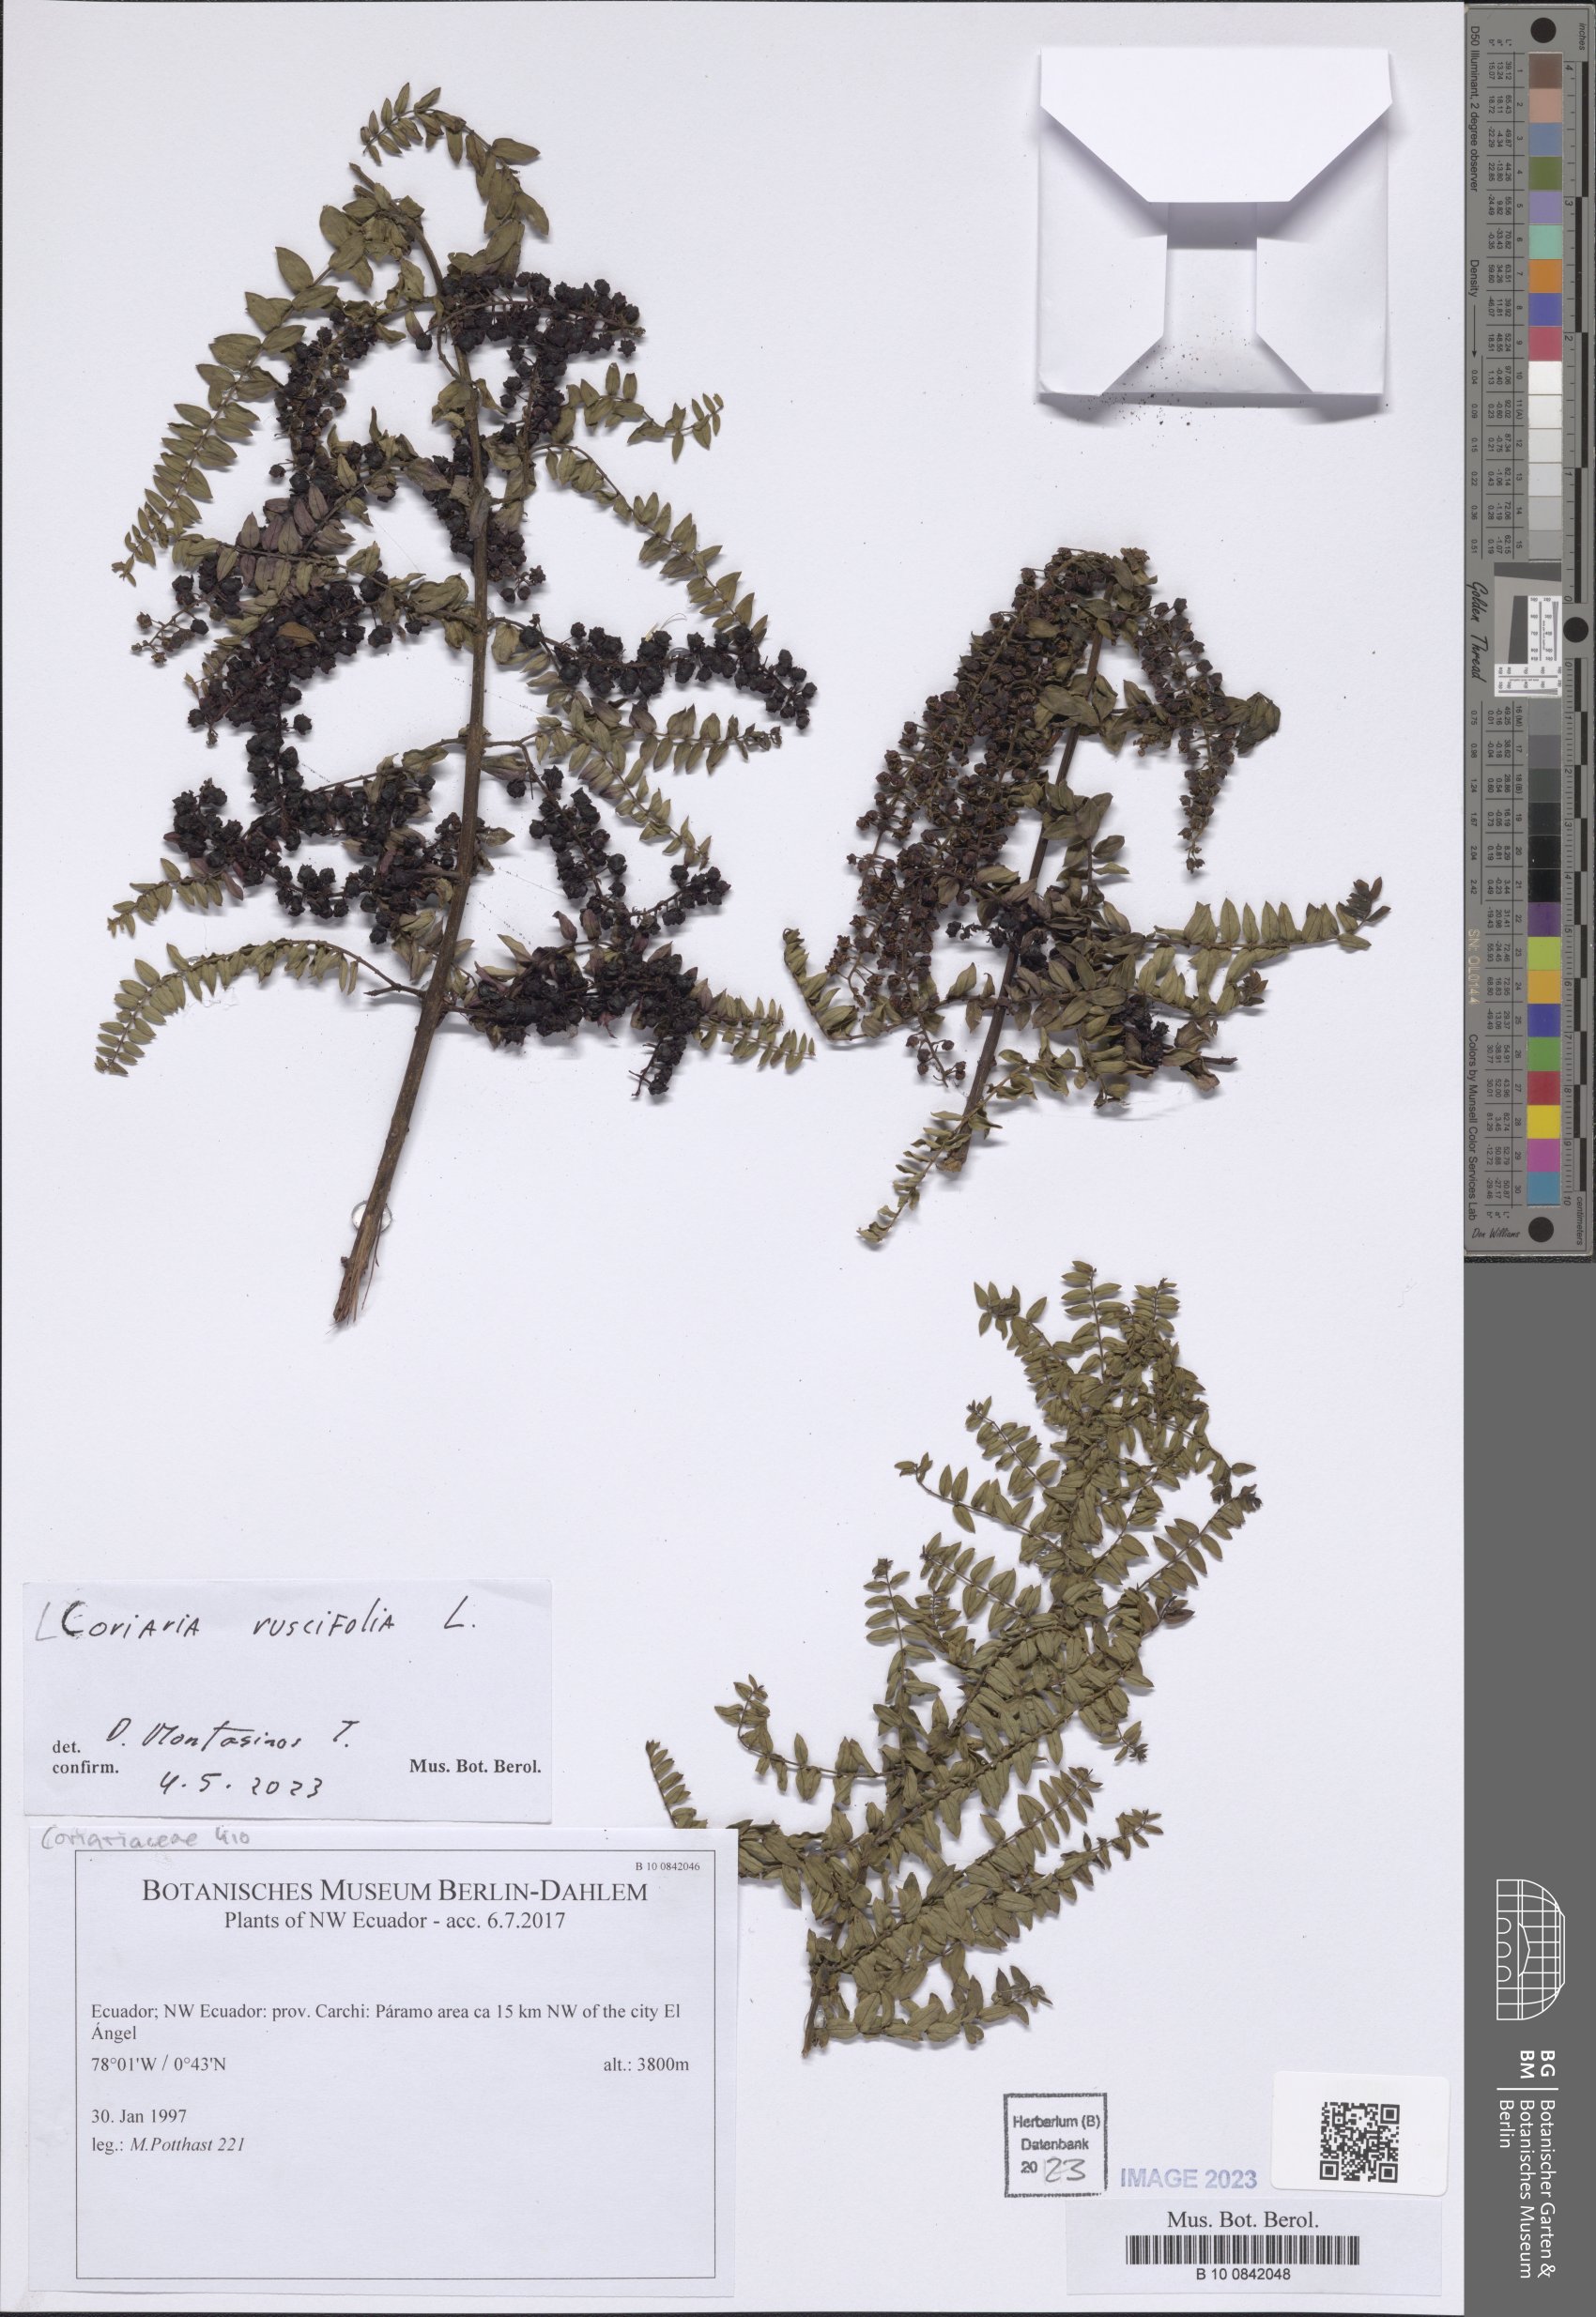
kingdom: Plantae
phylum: Tracheophyta
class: Magnoliopsida
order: Cucurbitales
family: Coriariaceae
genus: Coriaria
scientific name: Coriaria ruscifolia
